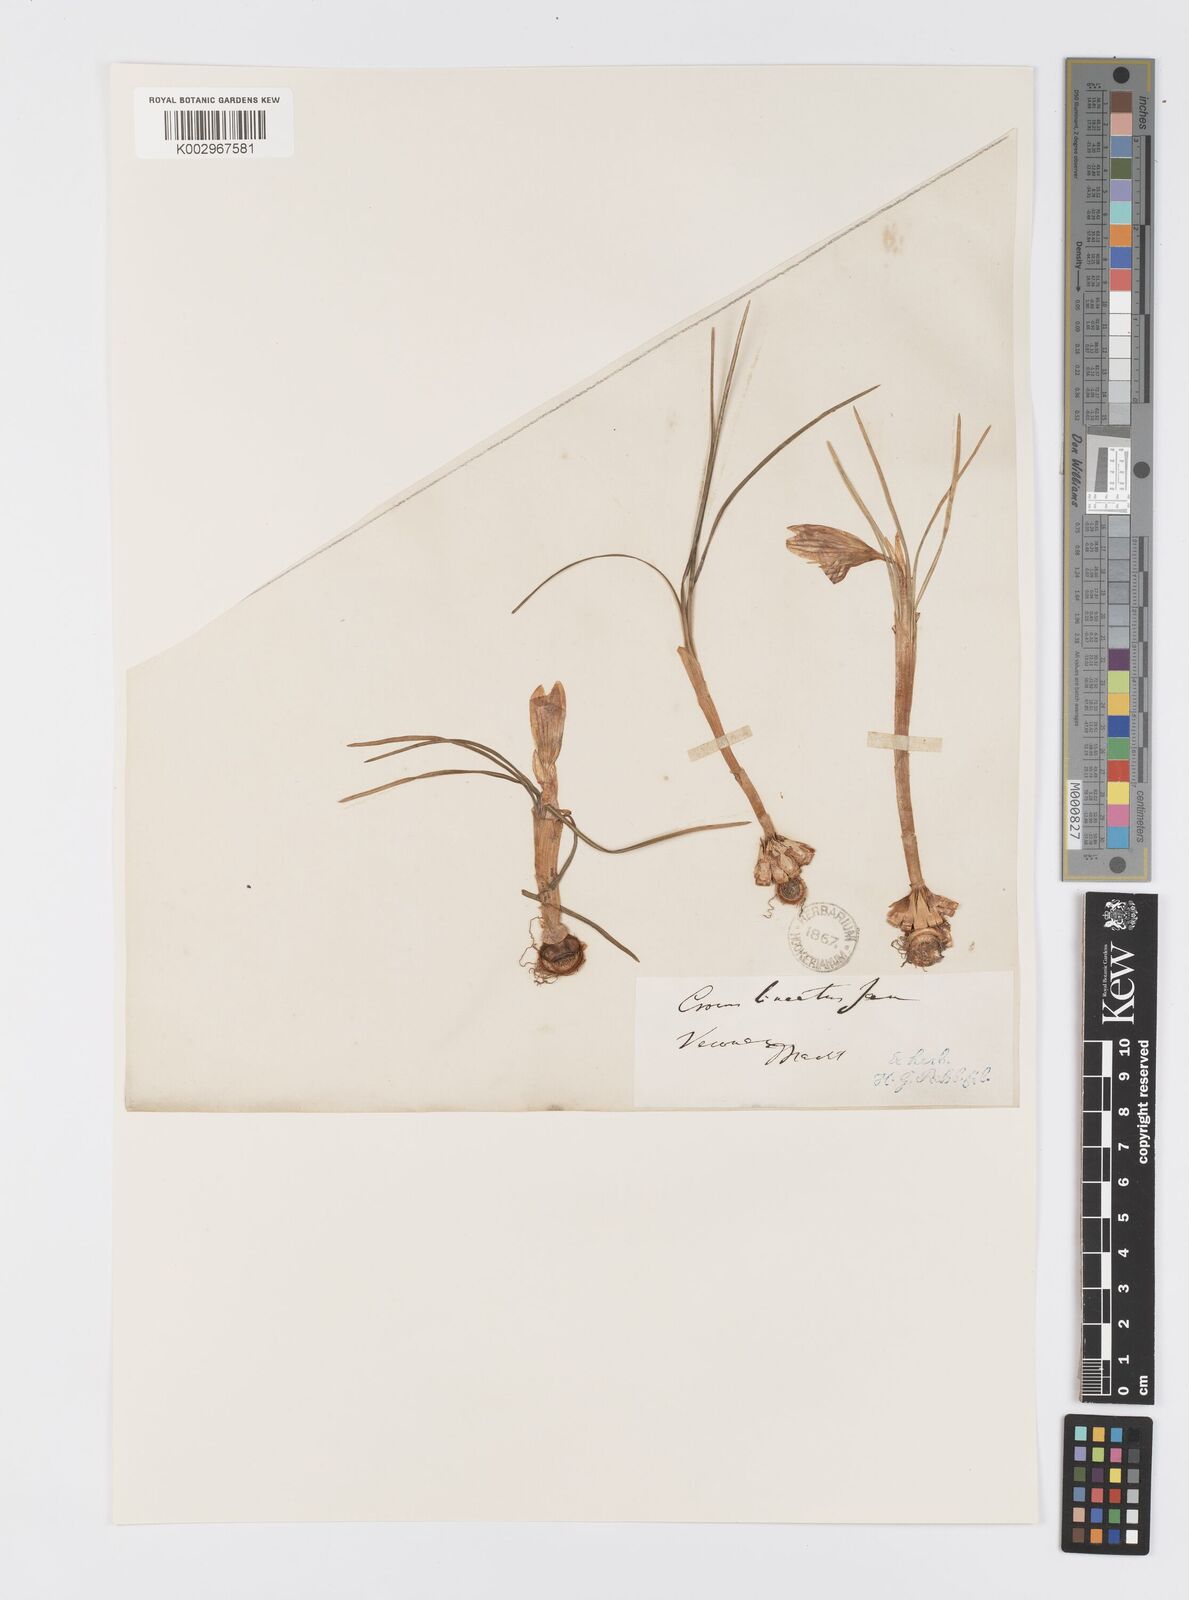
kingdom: Plantae
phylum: Tracheophyta
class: Liliopsida
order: Asparagales
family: Iridaceae
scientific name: Iridaceae
